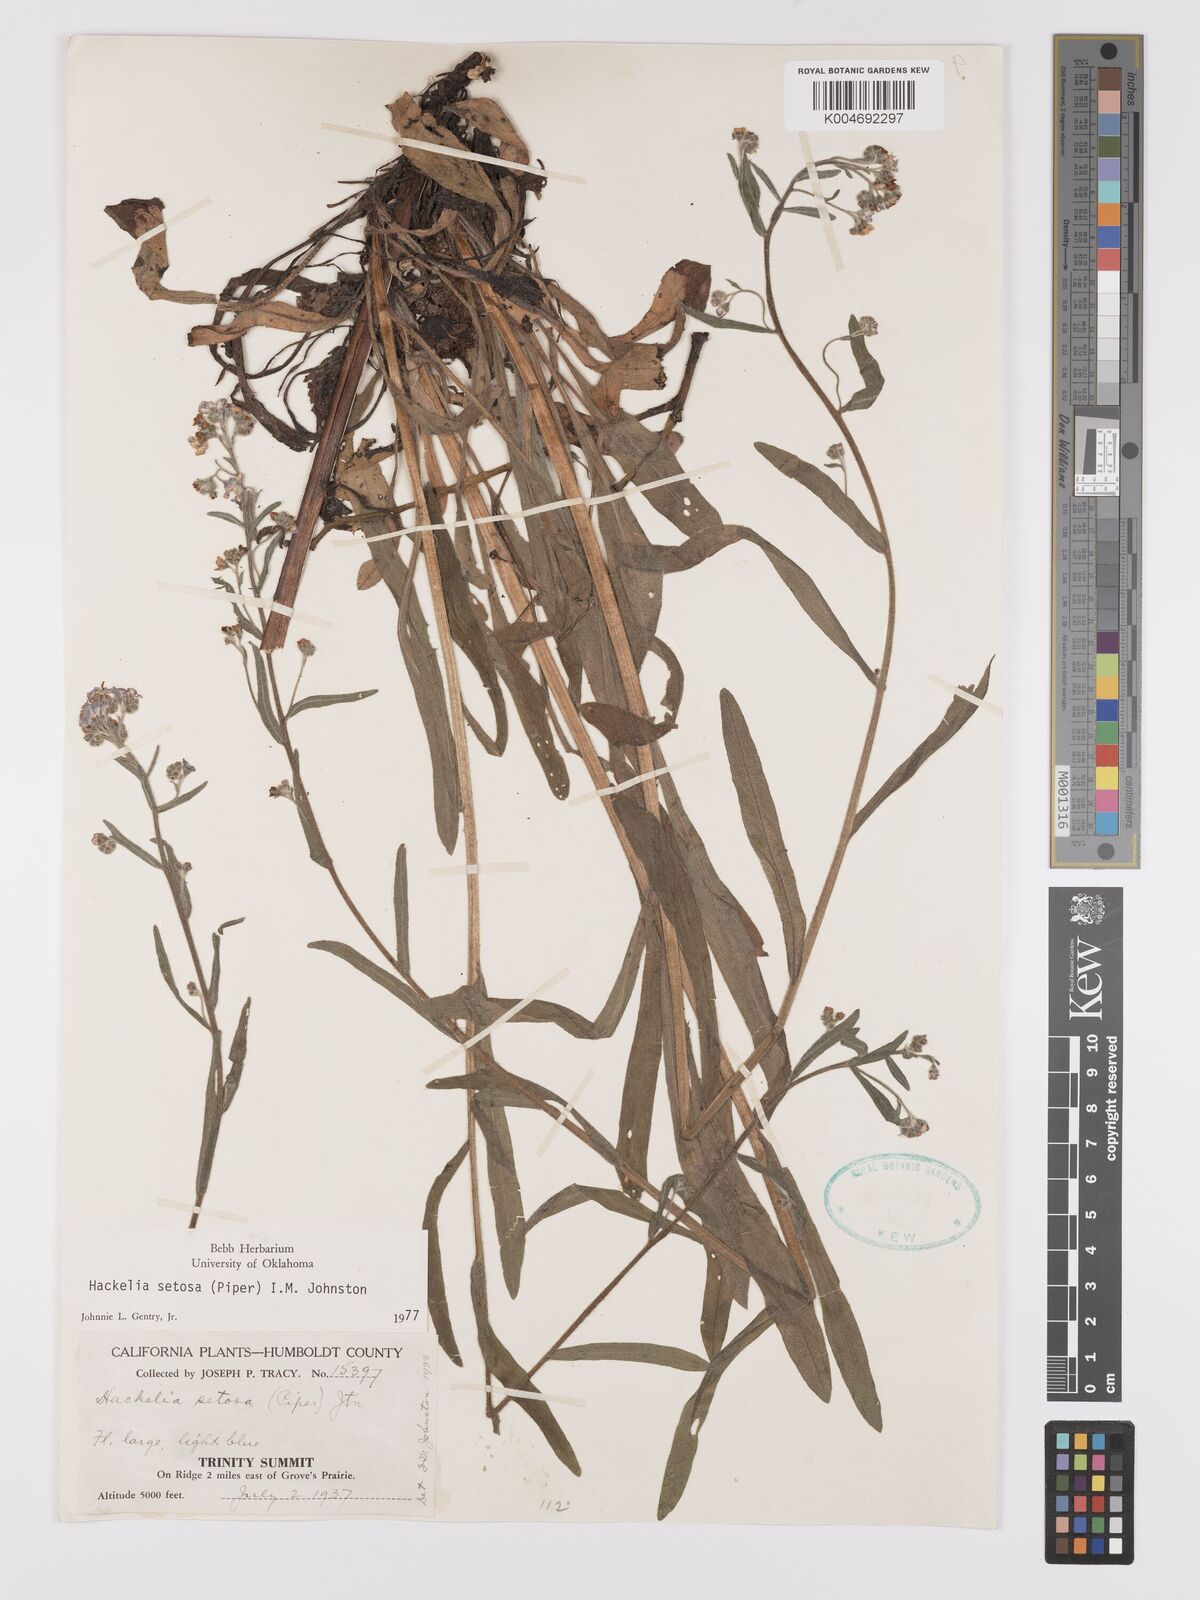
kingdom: Plantae
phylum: Tracheophyta
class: Magnoliopsida
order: Boraginales
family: Boraginaceae
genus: Hackelia
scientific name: Hackelia setosa
